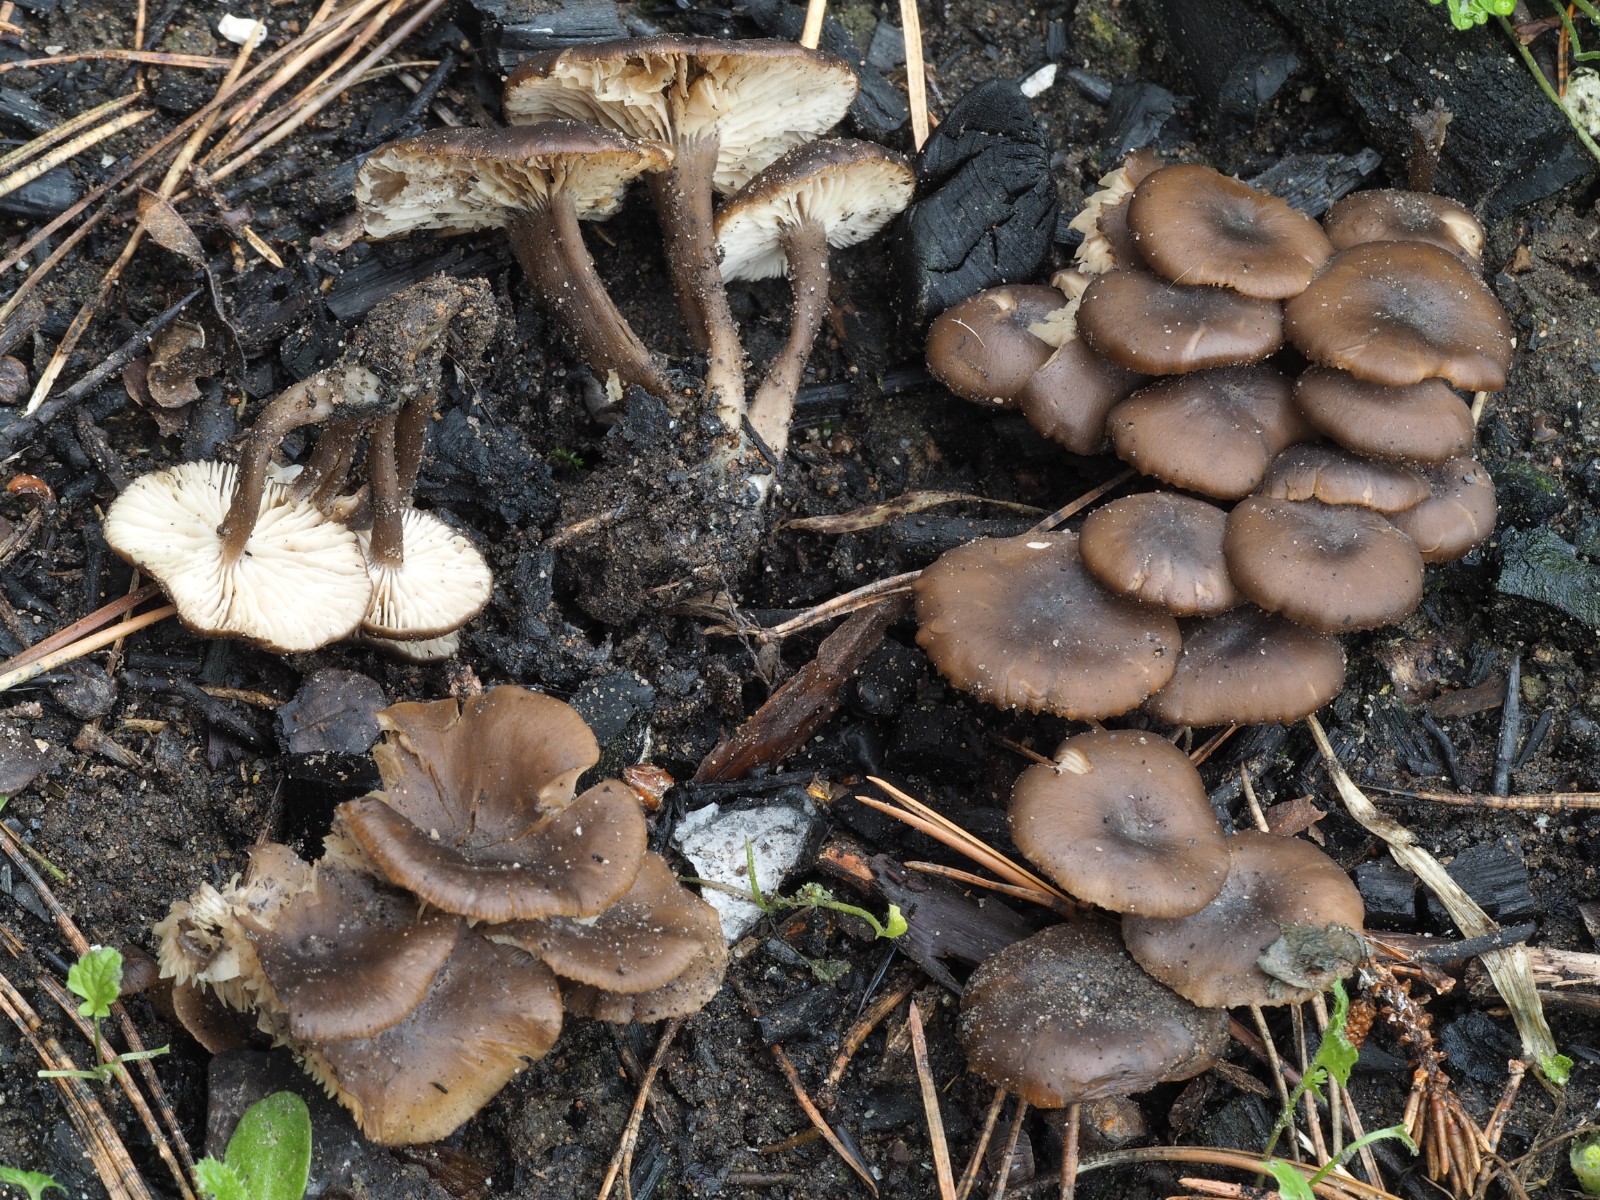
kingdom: Fungi
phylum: Basidiomycota
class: Agaricomycetes
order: Agaricales
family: Lyophyllaceae
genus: Tephrocybe
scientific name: Tephrocybe anthracophila
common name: svedje-gråblad
